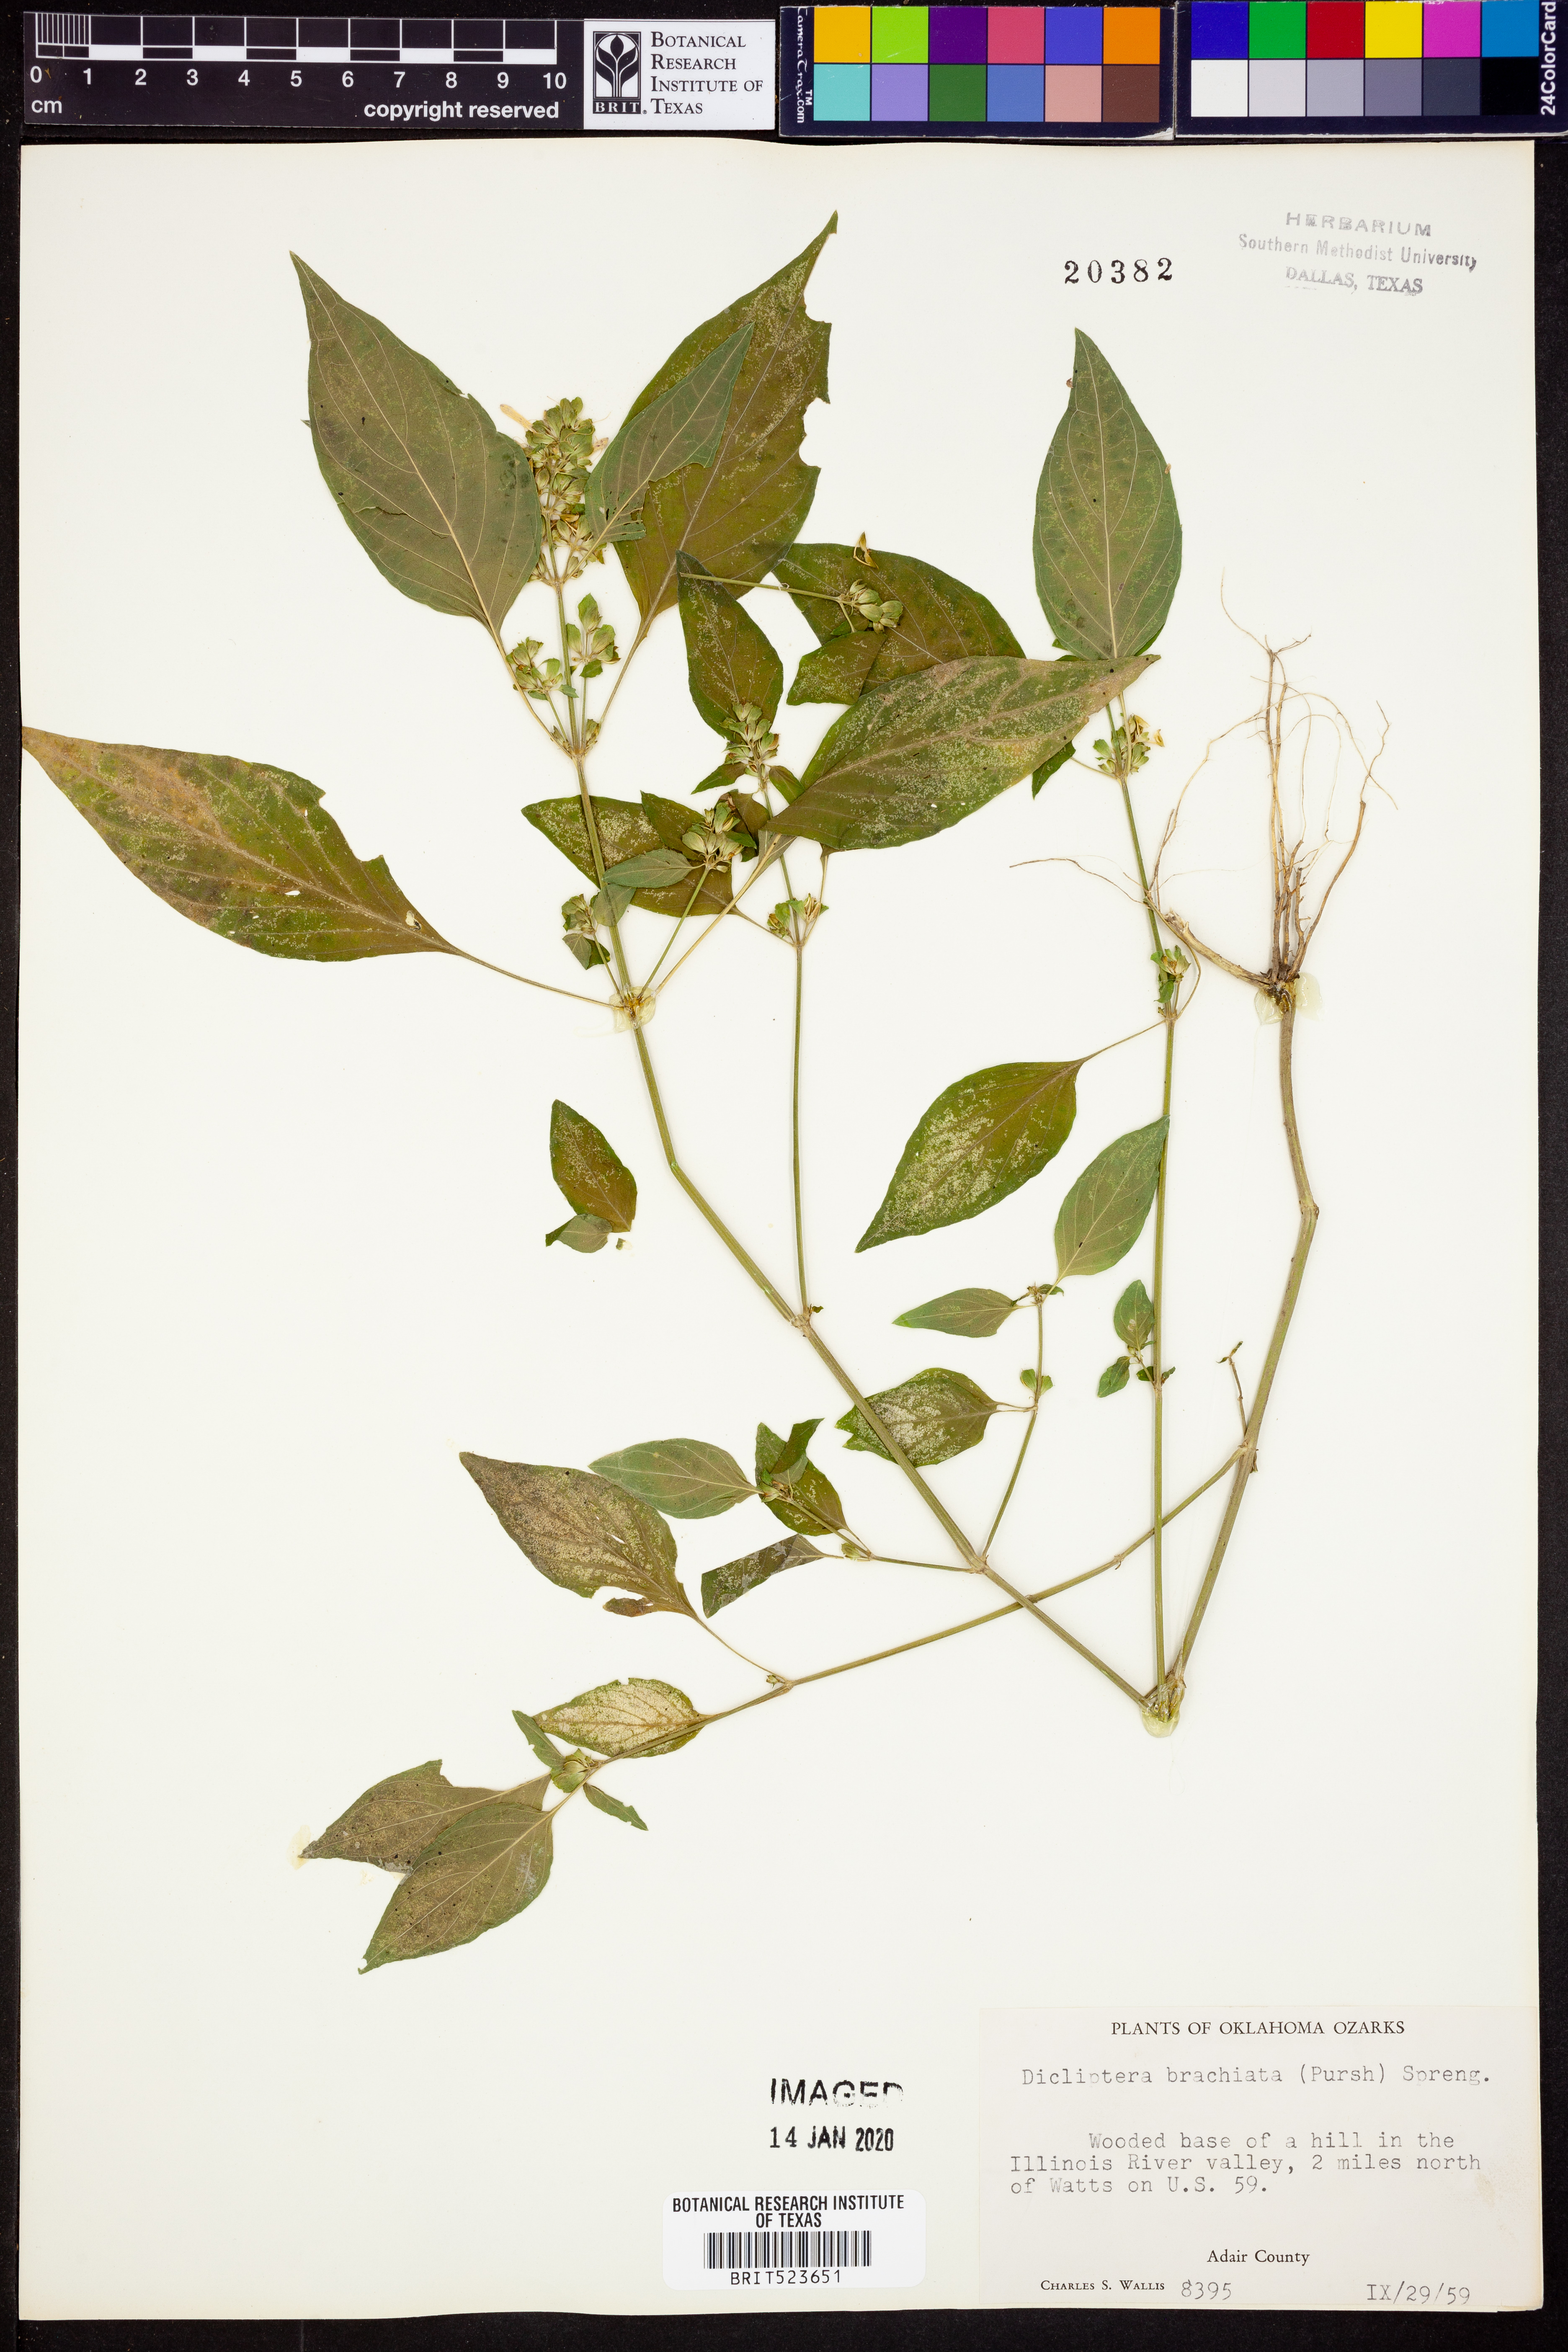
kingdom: Plantae
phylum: Tracheophyta
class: Magnoliopsida
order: Lamiales
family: Acanthaceae
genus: Dicliptera
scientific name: Dicliptera brachiata
